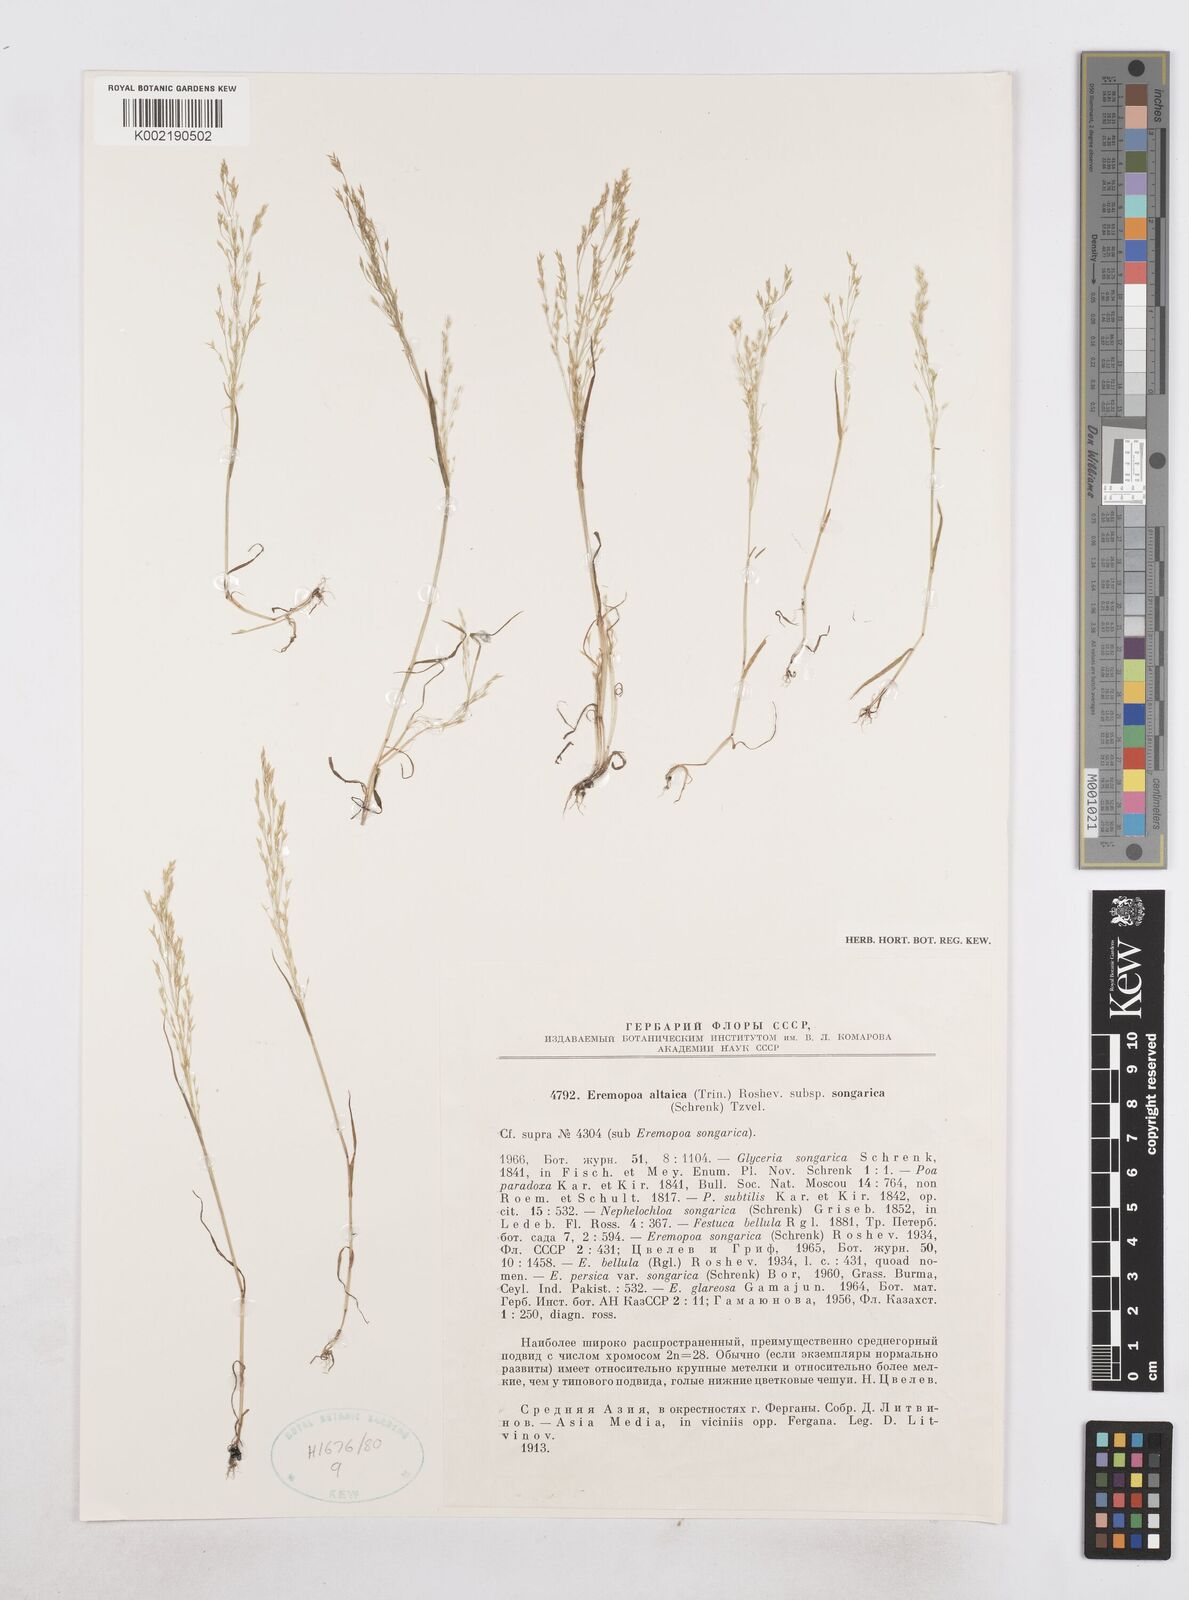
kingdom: Plantae
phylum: Tracheophyta
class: Liliopsida
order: Poales
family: Poaceae
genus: Poa
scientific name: Poa diaphora
